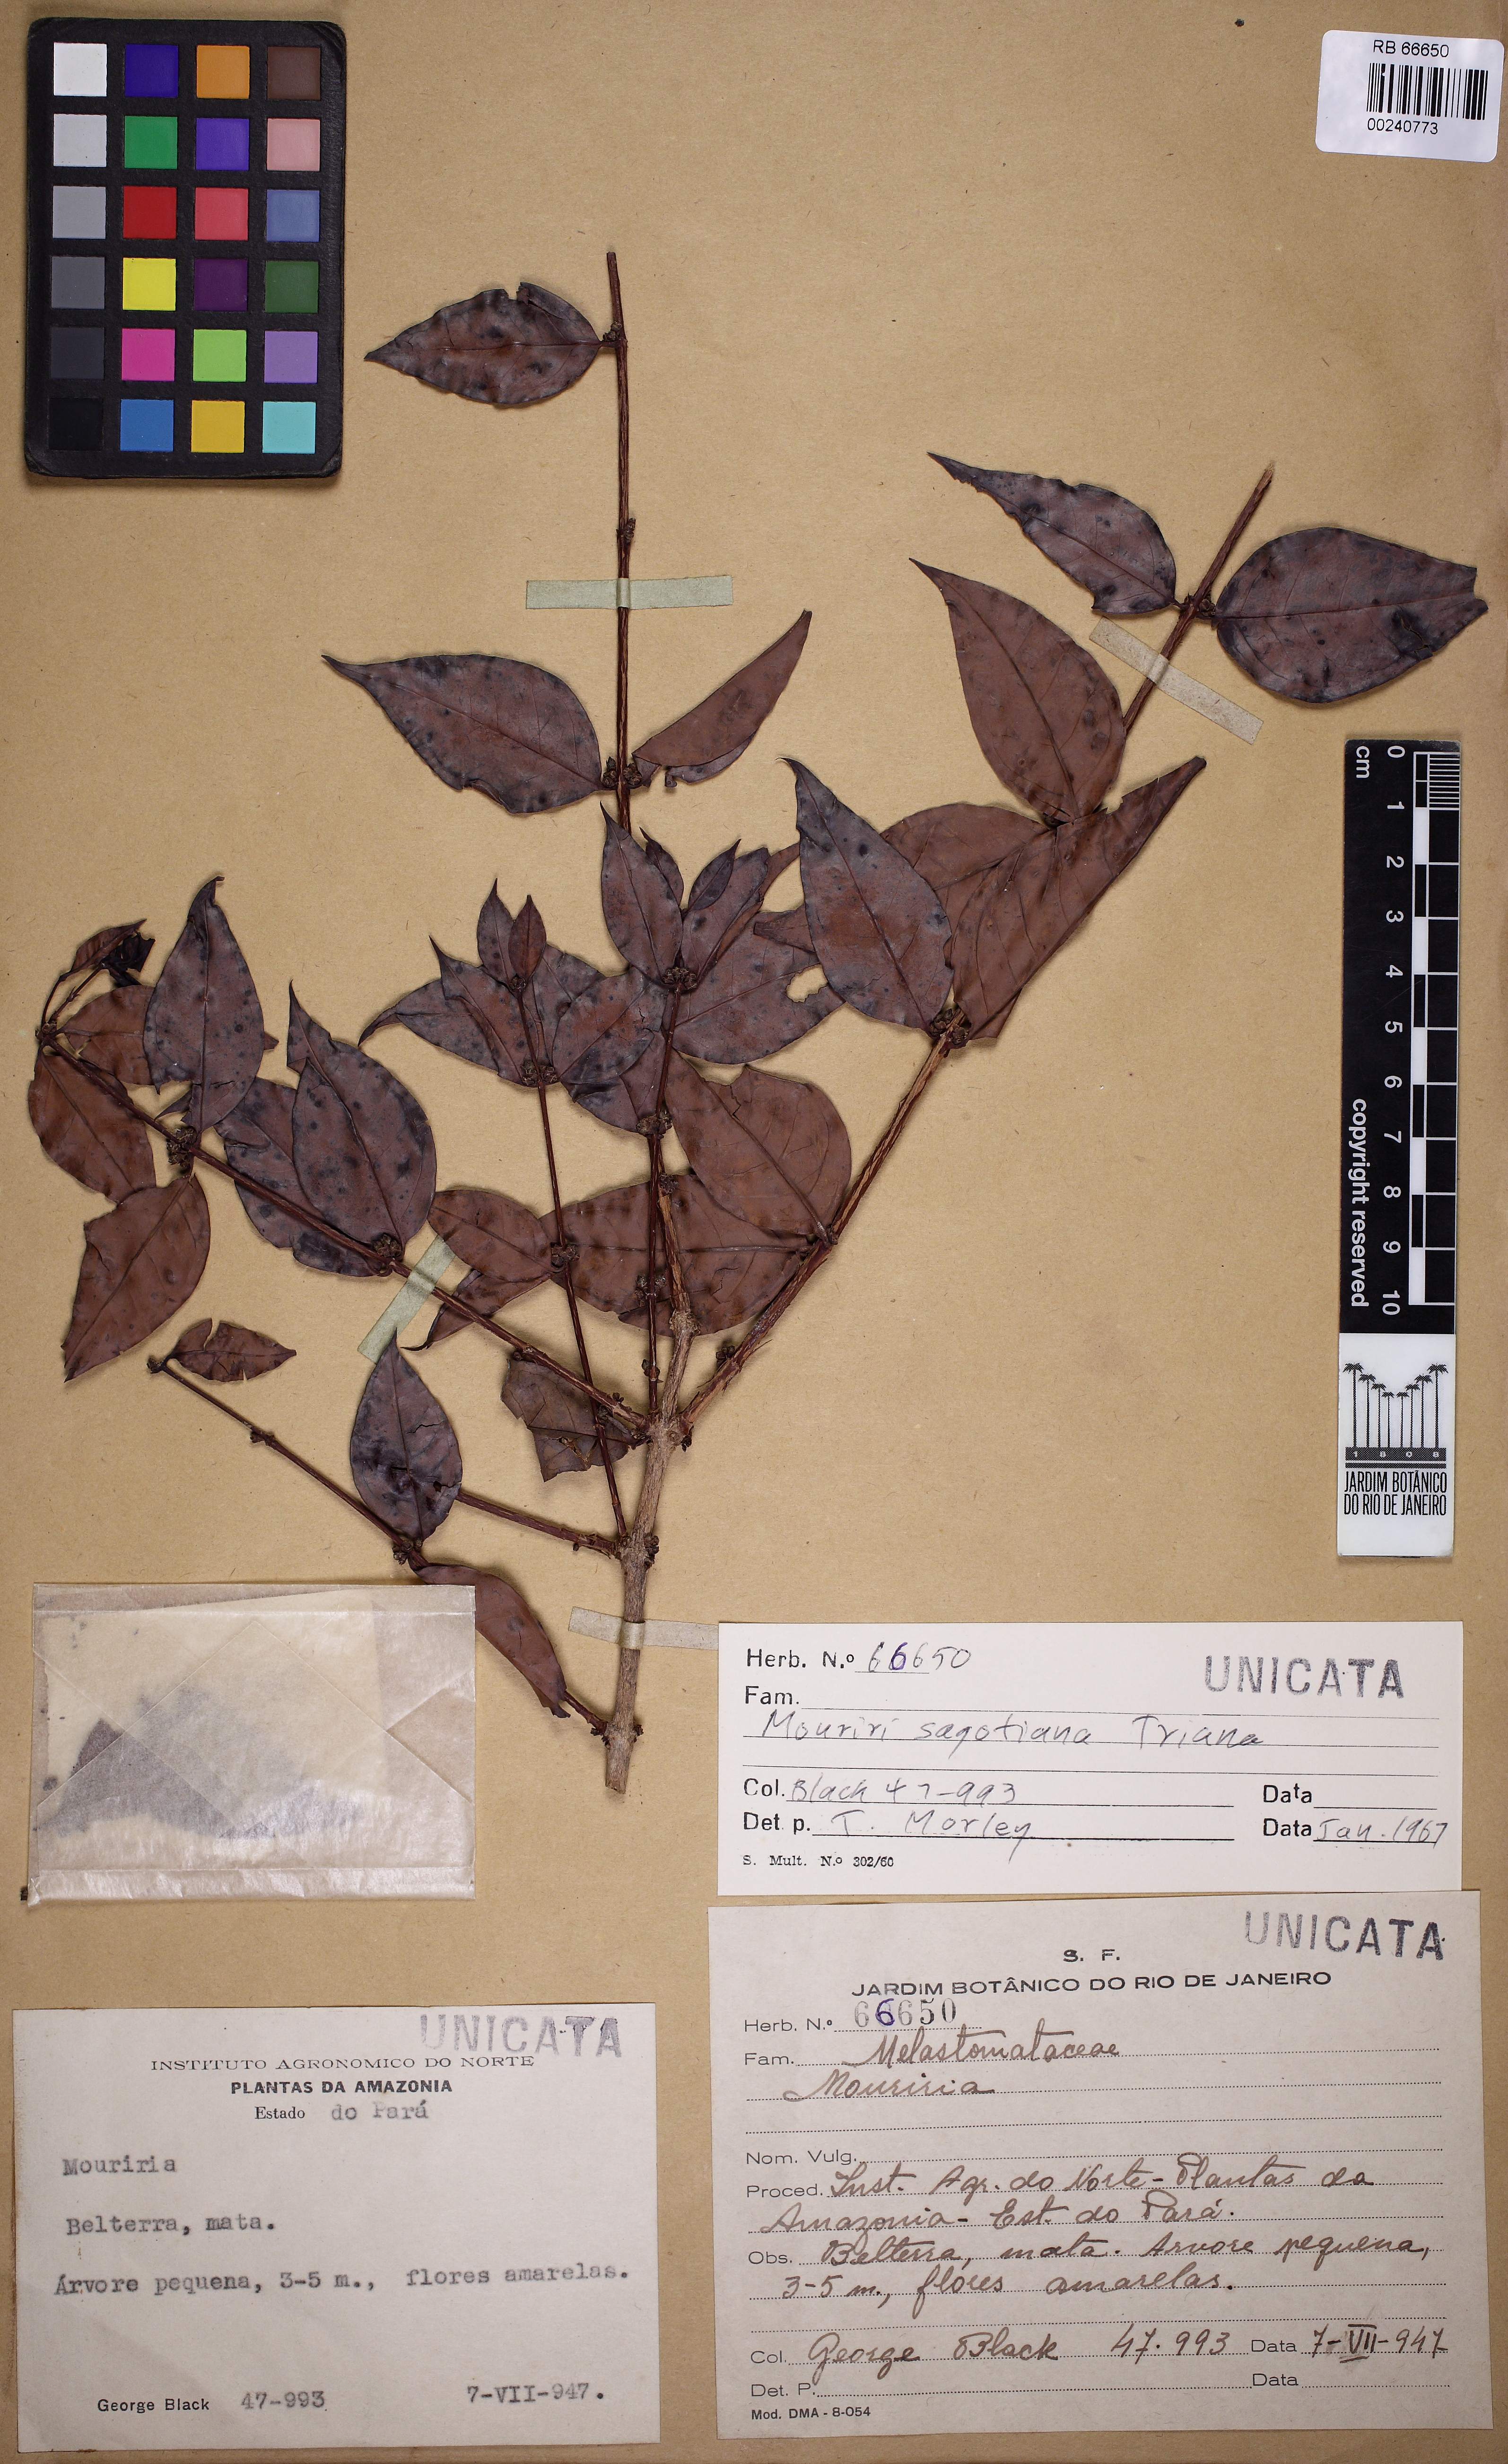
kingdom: Plantae
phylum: Tracheophyta
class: Magnoliopsida
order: Myrtales
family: Melastomataceae
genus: Mouriri
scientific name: Mouriri sagotiana
